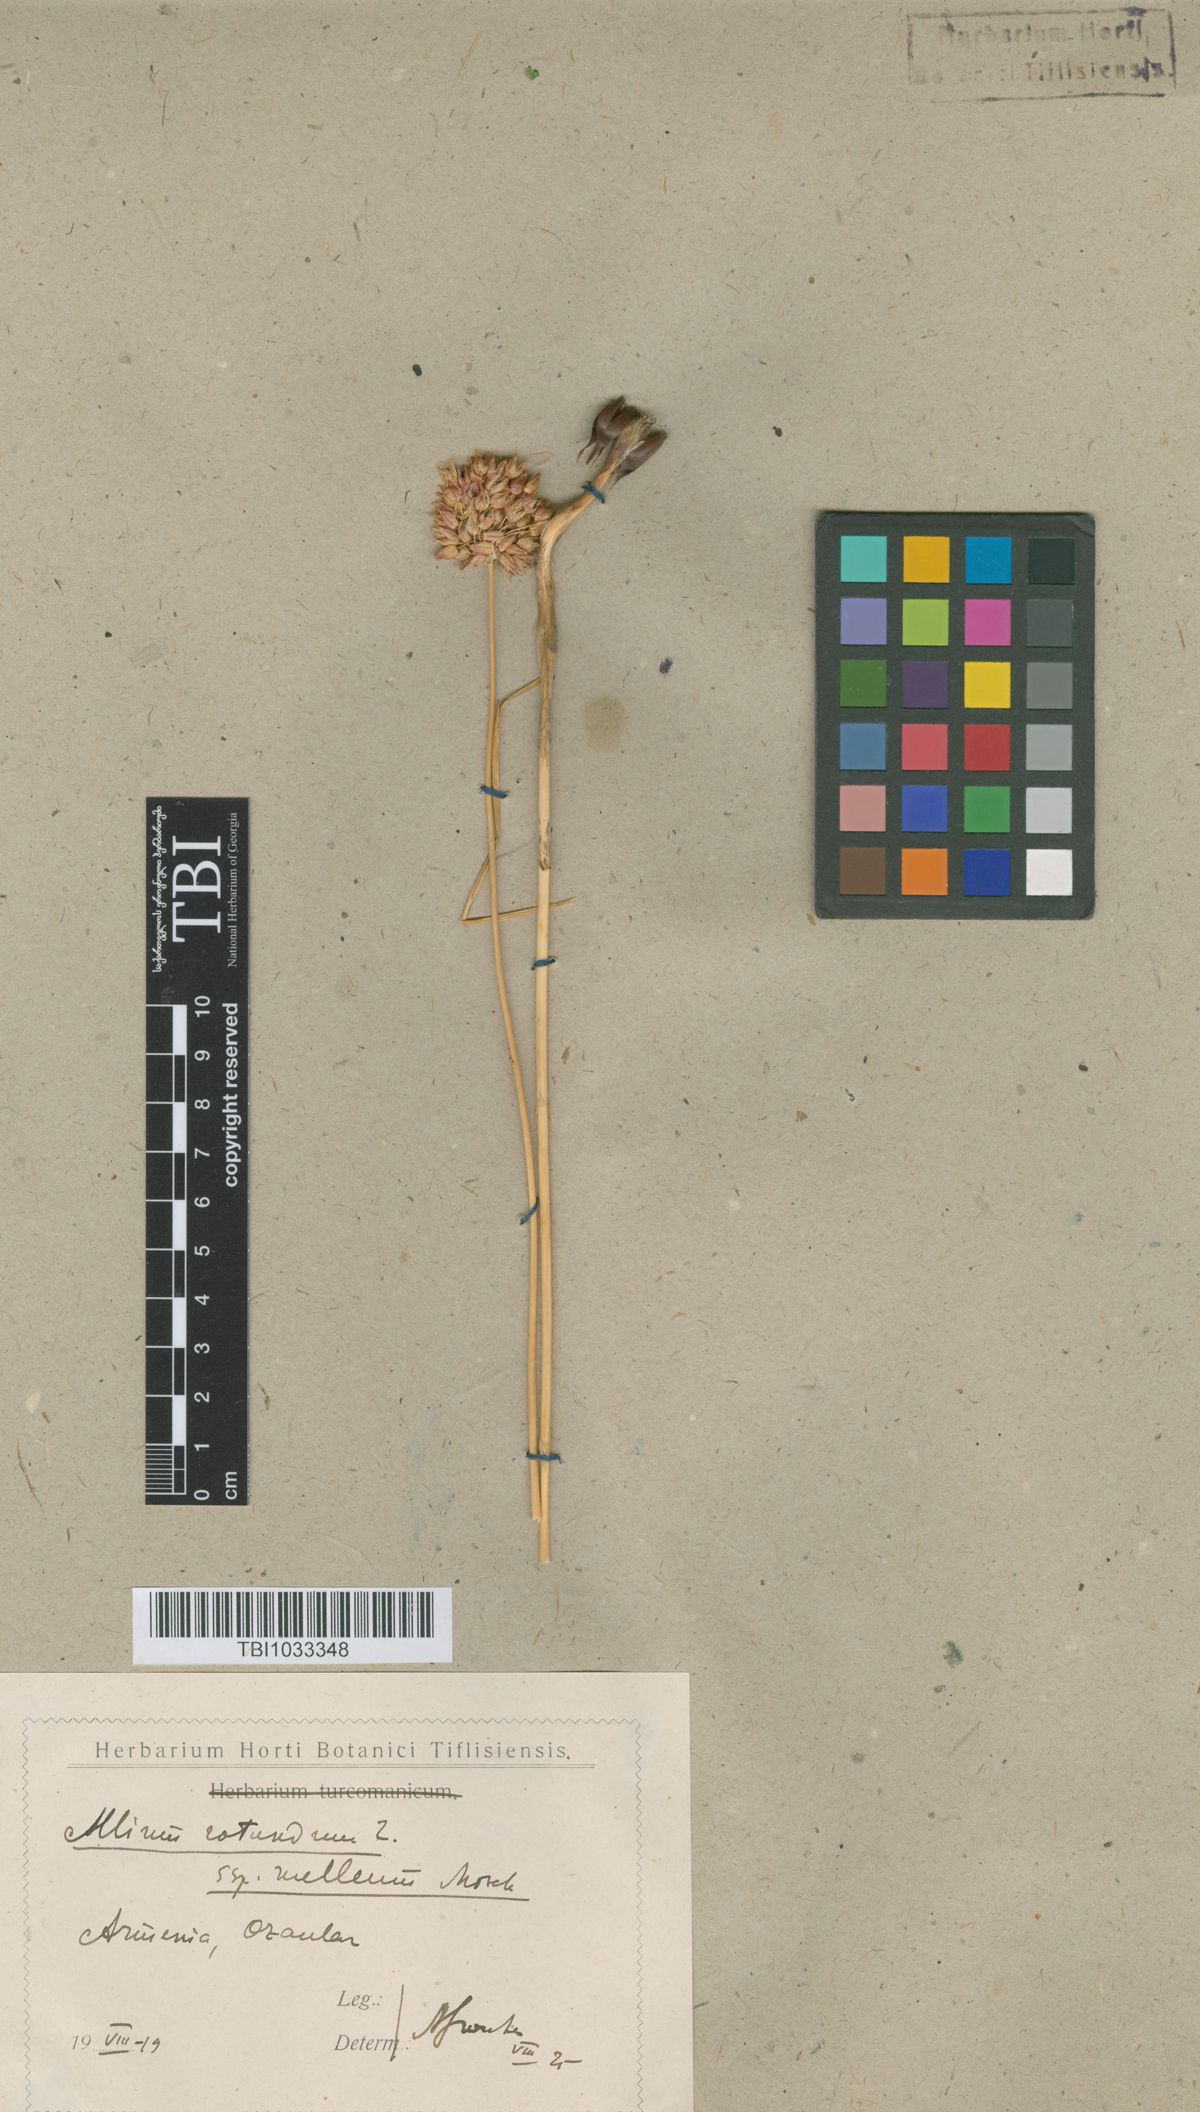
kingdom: Plantae
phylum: Tracheophyta
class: Liliopsida
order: Asparagales
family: Amaryllidaceae
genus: Allium
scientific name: Allium rotundum
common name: Sand leek
